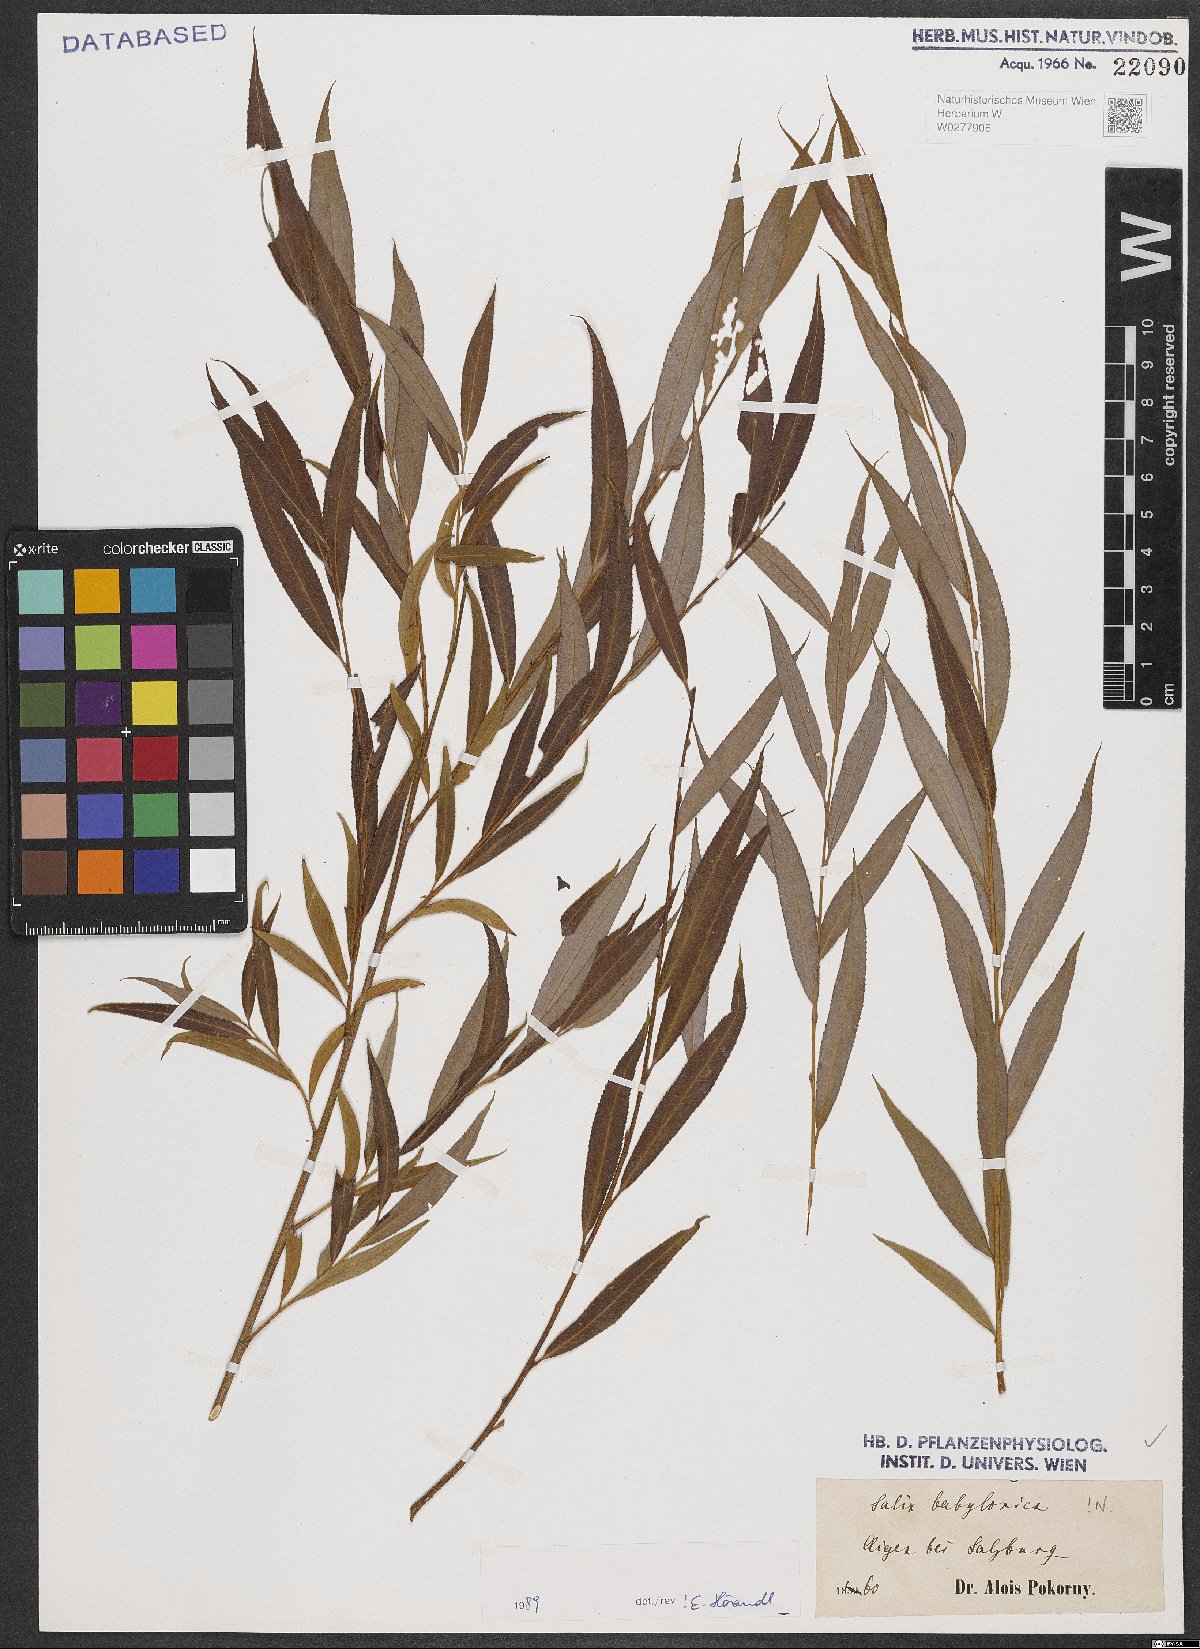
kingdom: Plantae
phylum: Tracheophyta
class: Magnoliopsida
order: Malpighiales
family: Salicaceae
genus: Salix
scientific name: Salix babylonica
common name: Weeping willow
